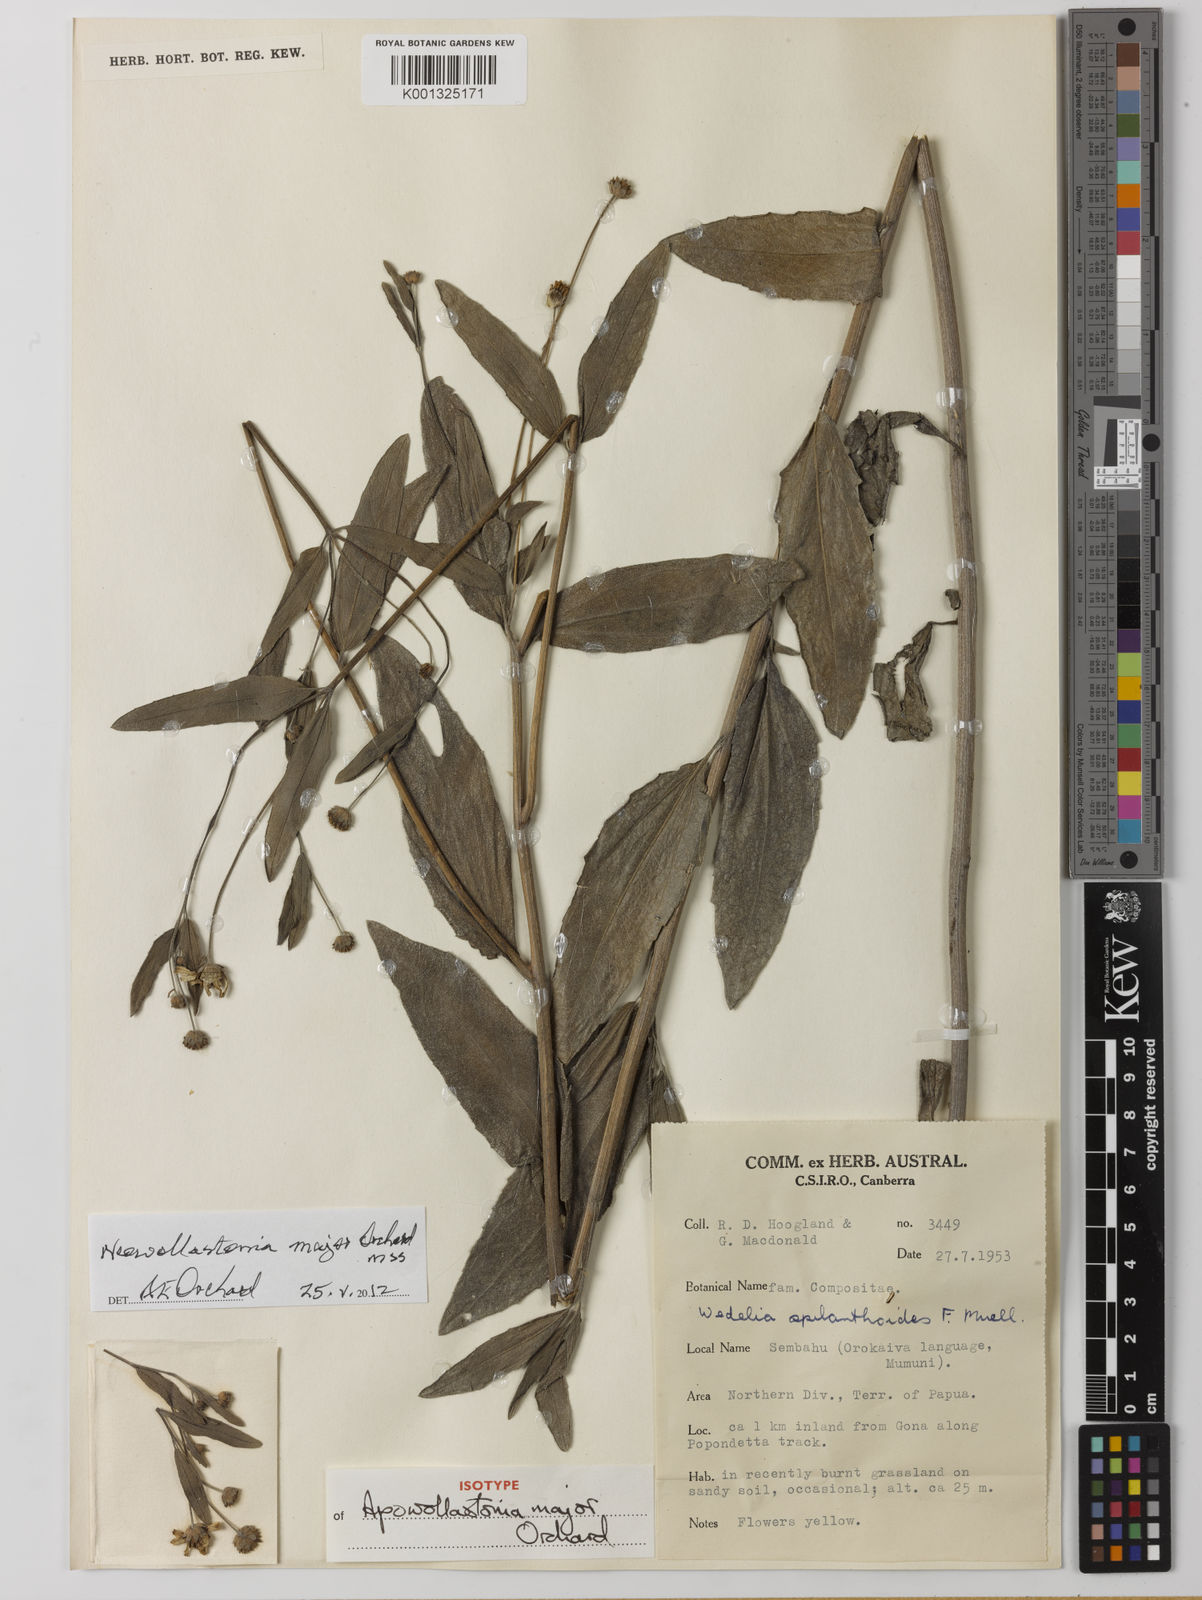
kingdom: Plantae
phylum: Tracheophyta
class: Magnoliopsida
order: Asterales
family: Asteraceae
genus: Apowollastonia
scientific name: Apowollastonia major
